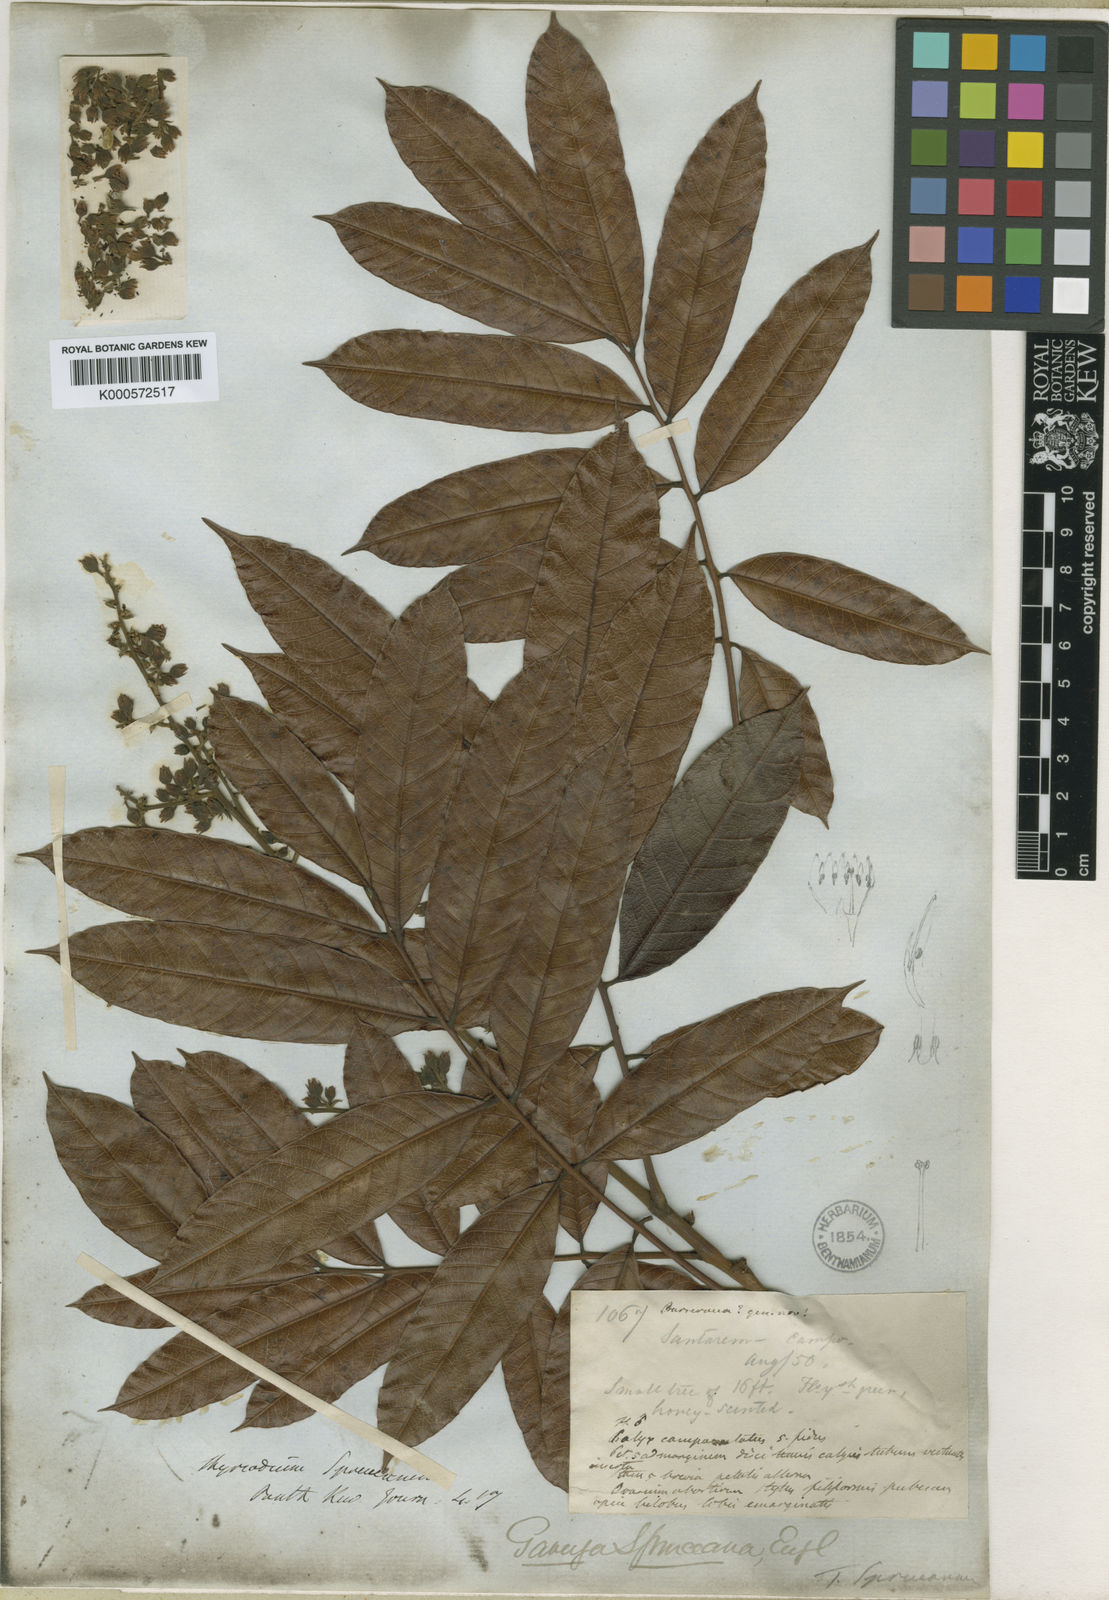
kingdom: Plantae
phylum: Tracheophyta
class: Magnoliopsida
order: Sapindales
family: Anacardiaceae
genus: Thyrsodium
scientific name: Thyrsodium spruceanum
